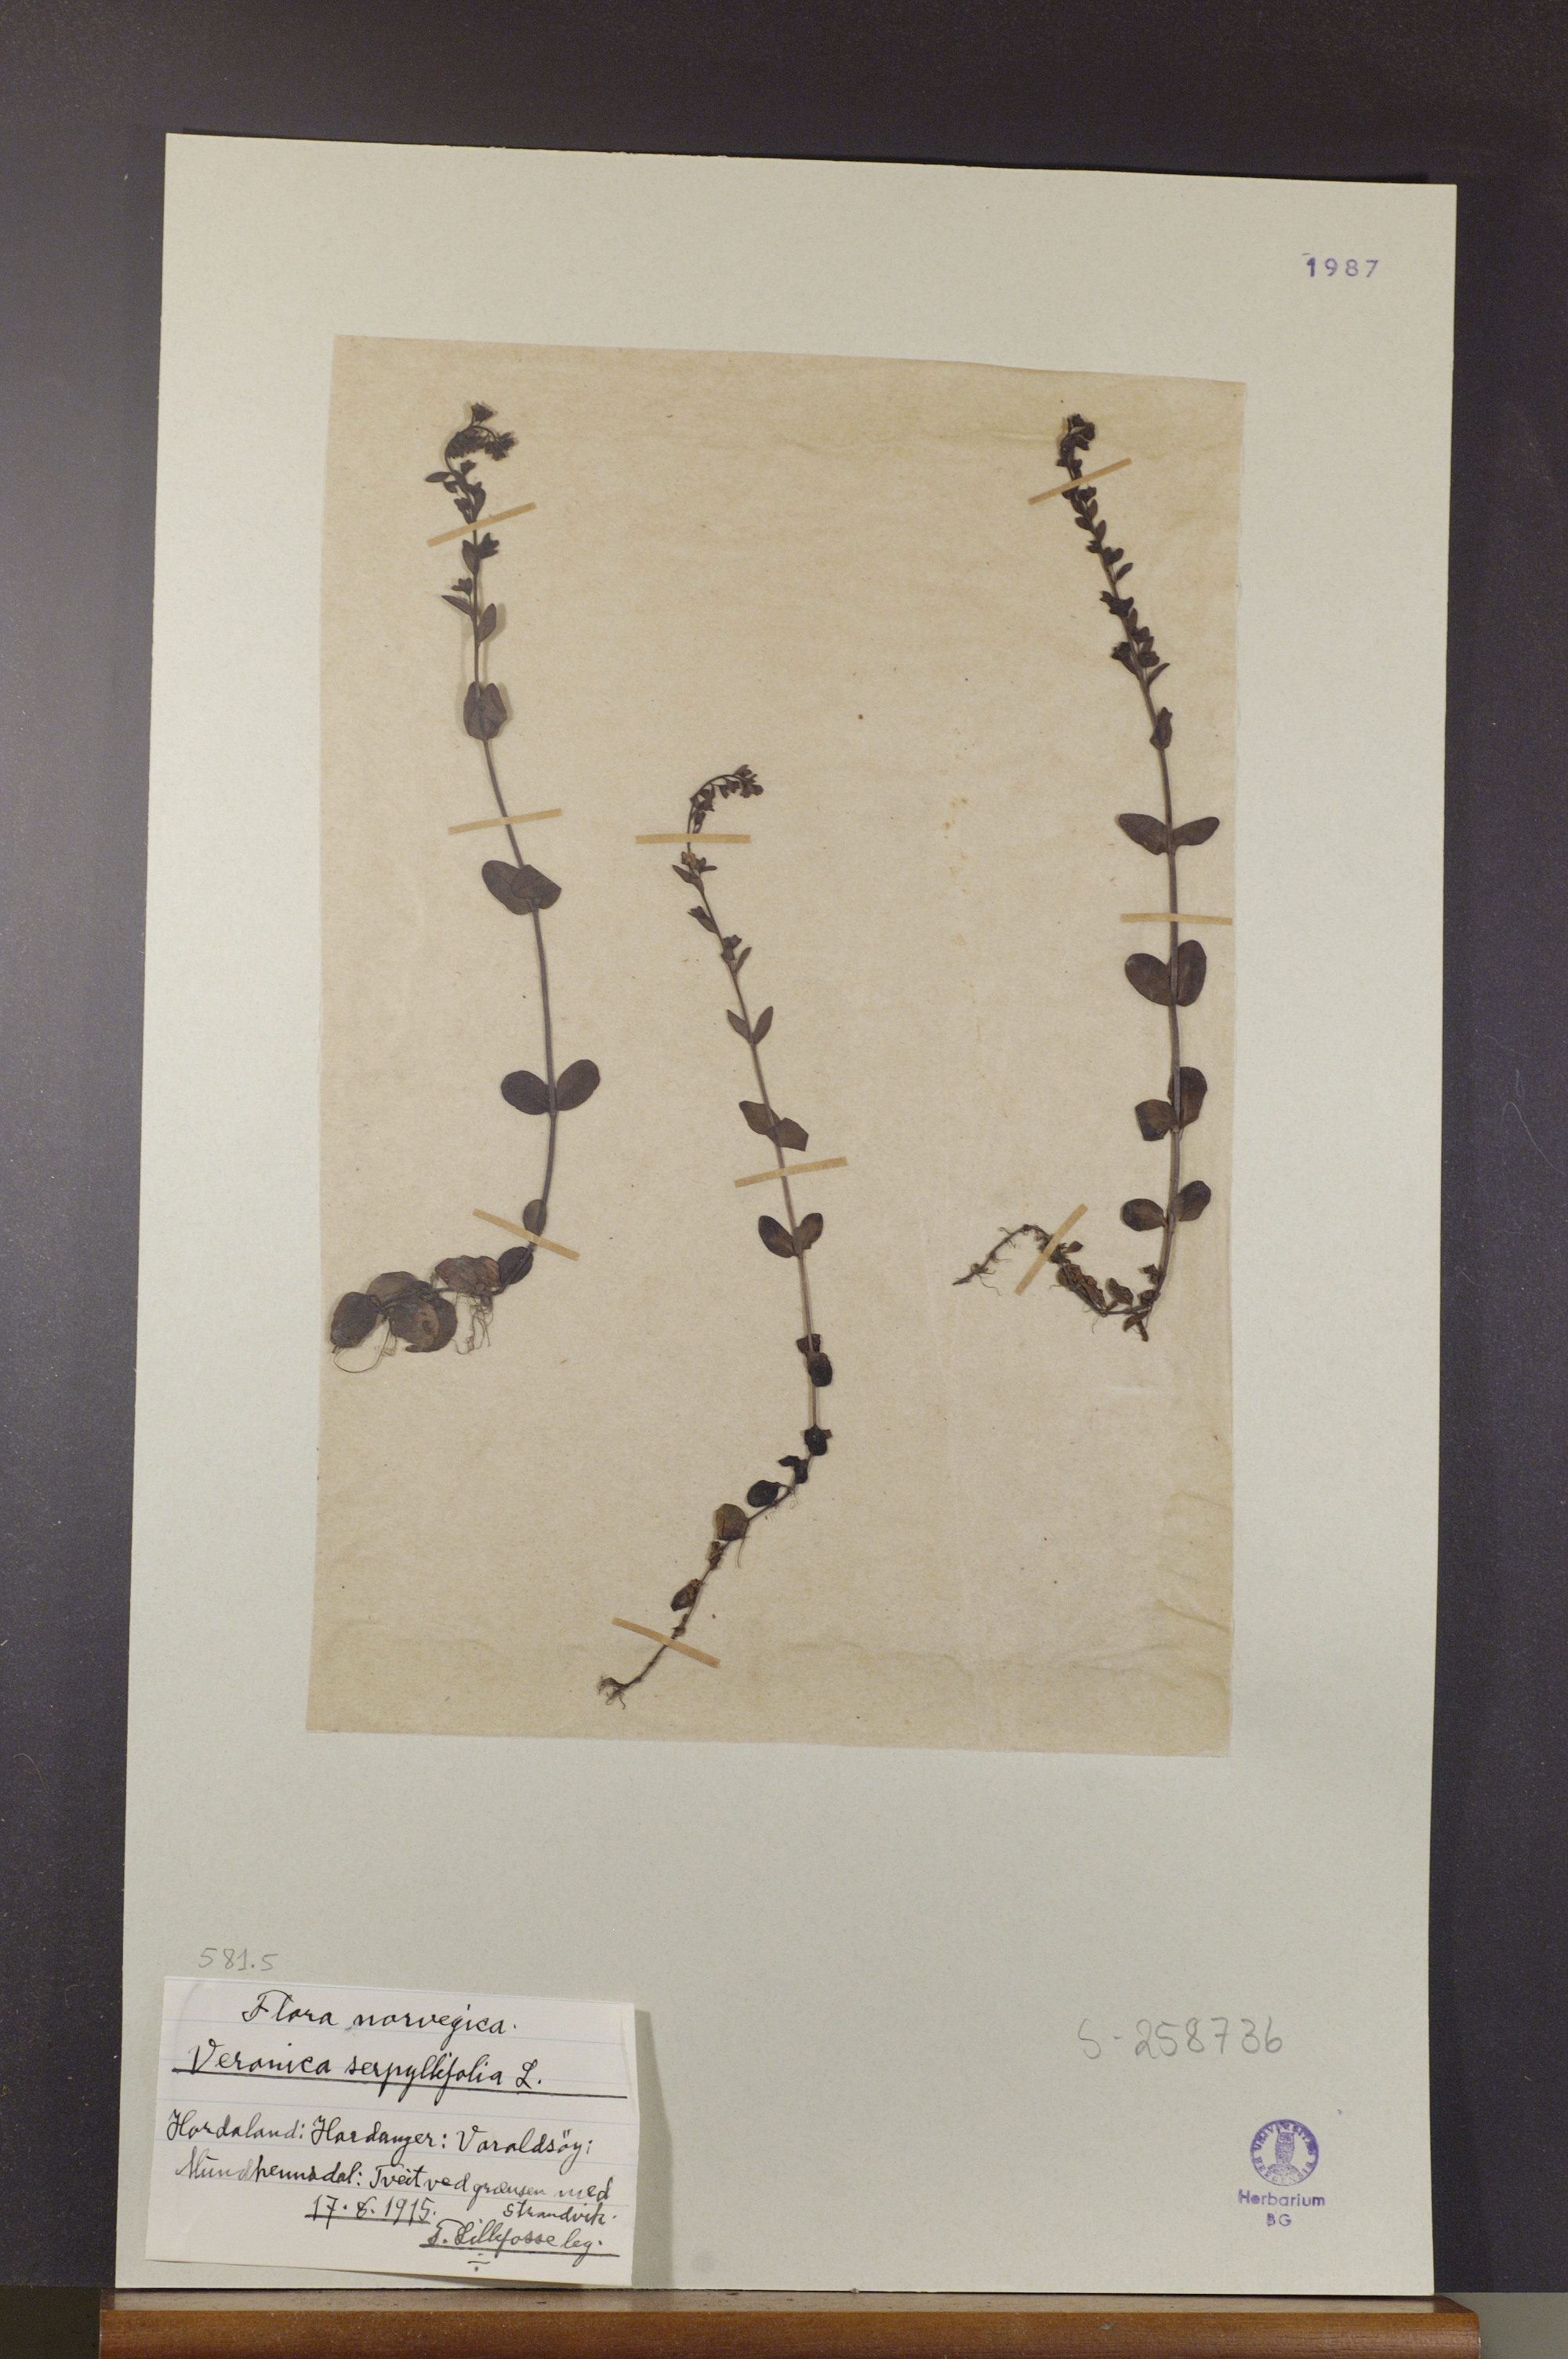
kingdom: Plantae
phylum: Tracheophyta
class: Magnoliopsida
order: Lamiales
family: Plantaginaceae
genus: Veronica
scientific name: Veronica serpyllifolia
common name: Thyme-leaved speedwell
